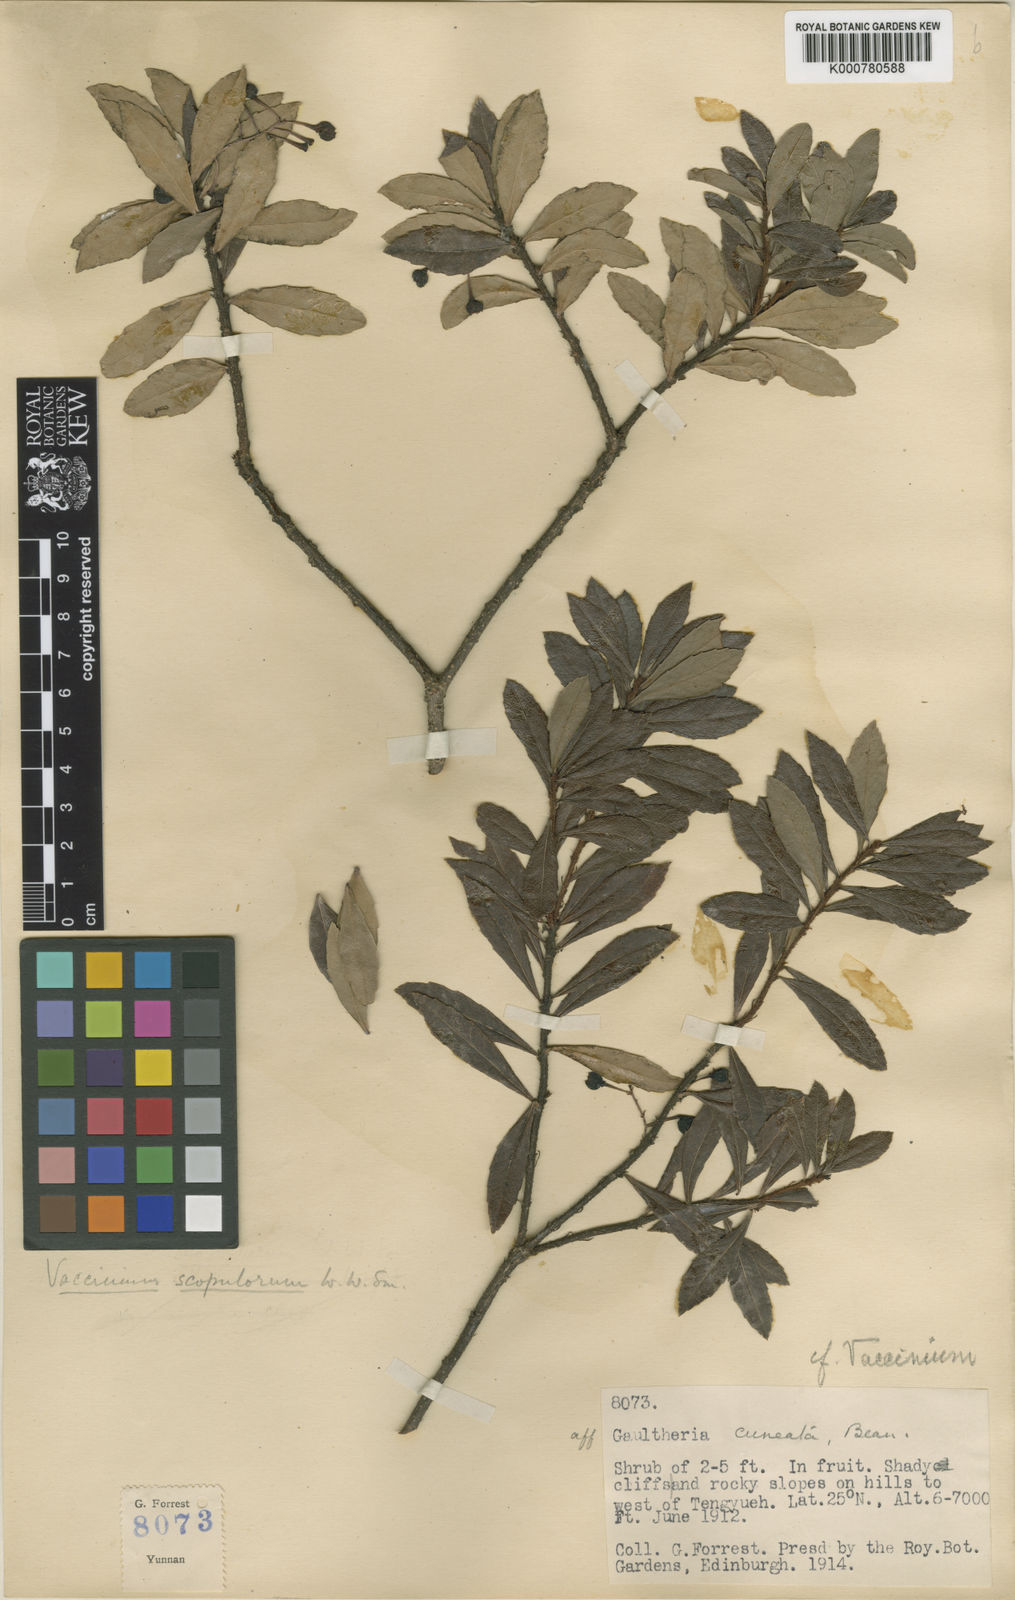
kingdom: Plantae
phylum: Tracheophyta
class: Magnoliopsida
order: Ericales
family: Ericaceae
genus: Vaccinium
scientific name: Vaccinium scopulorum
